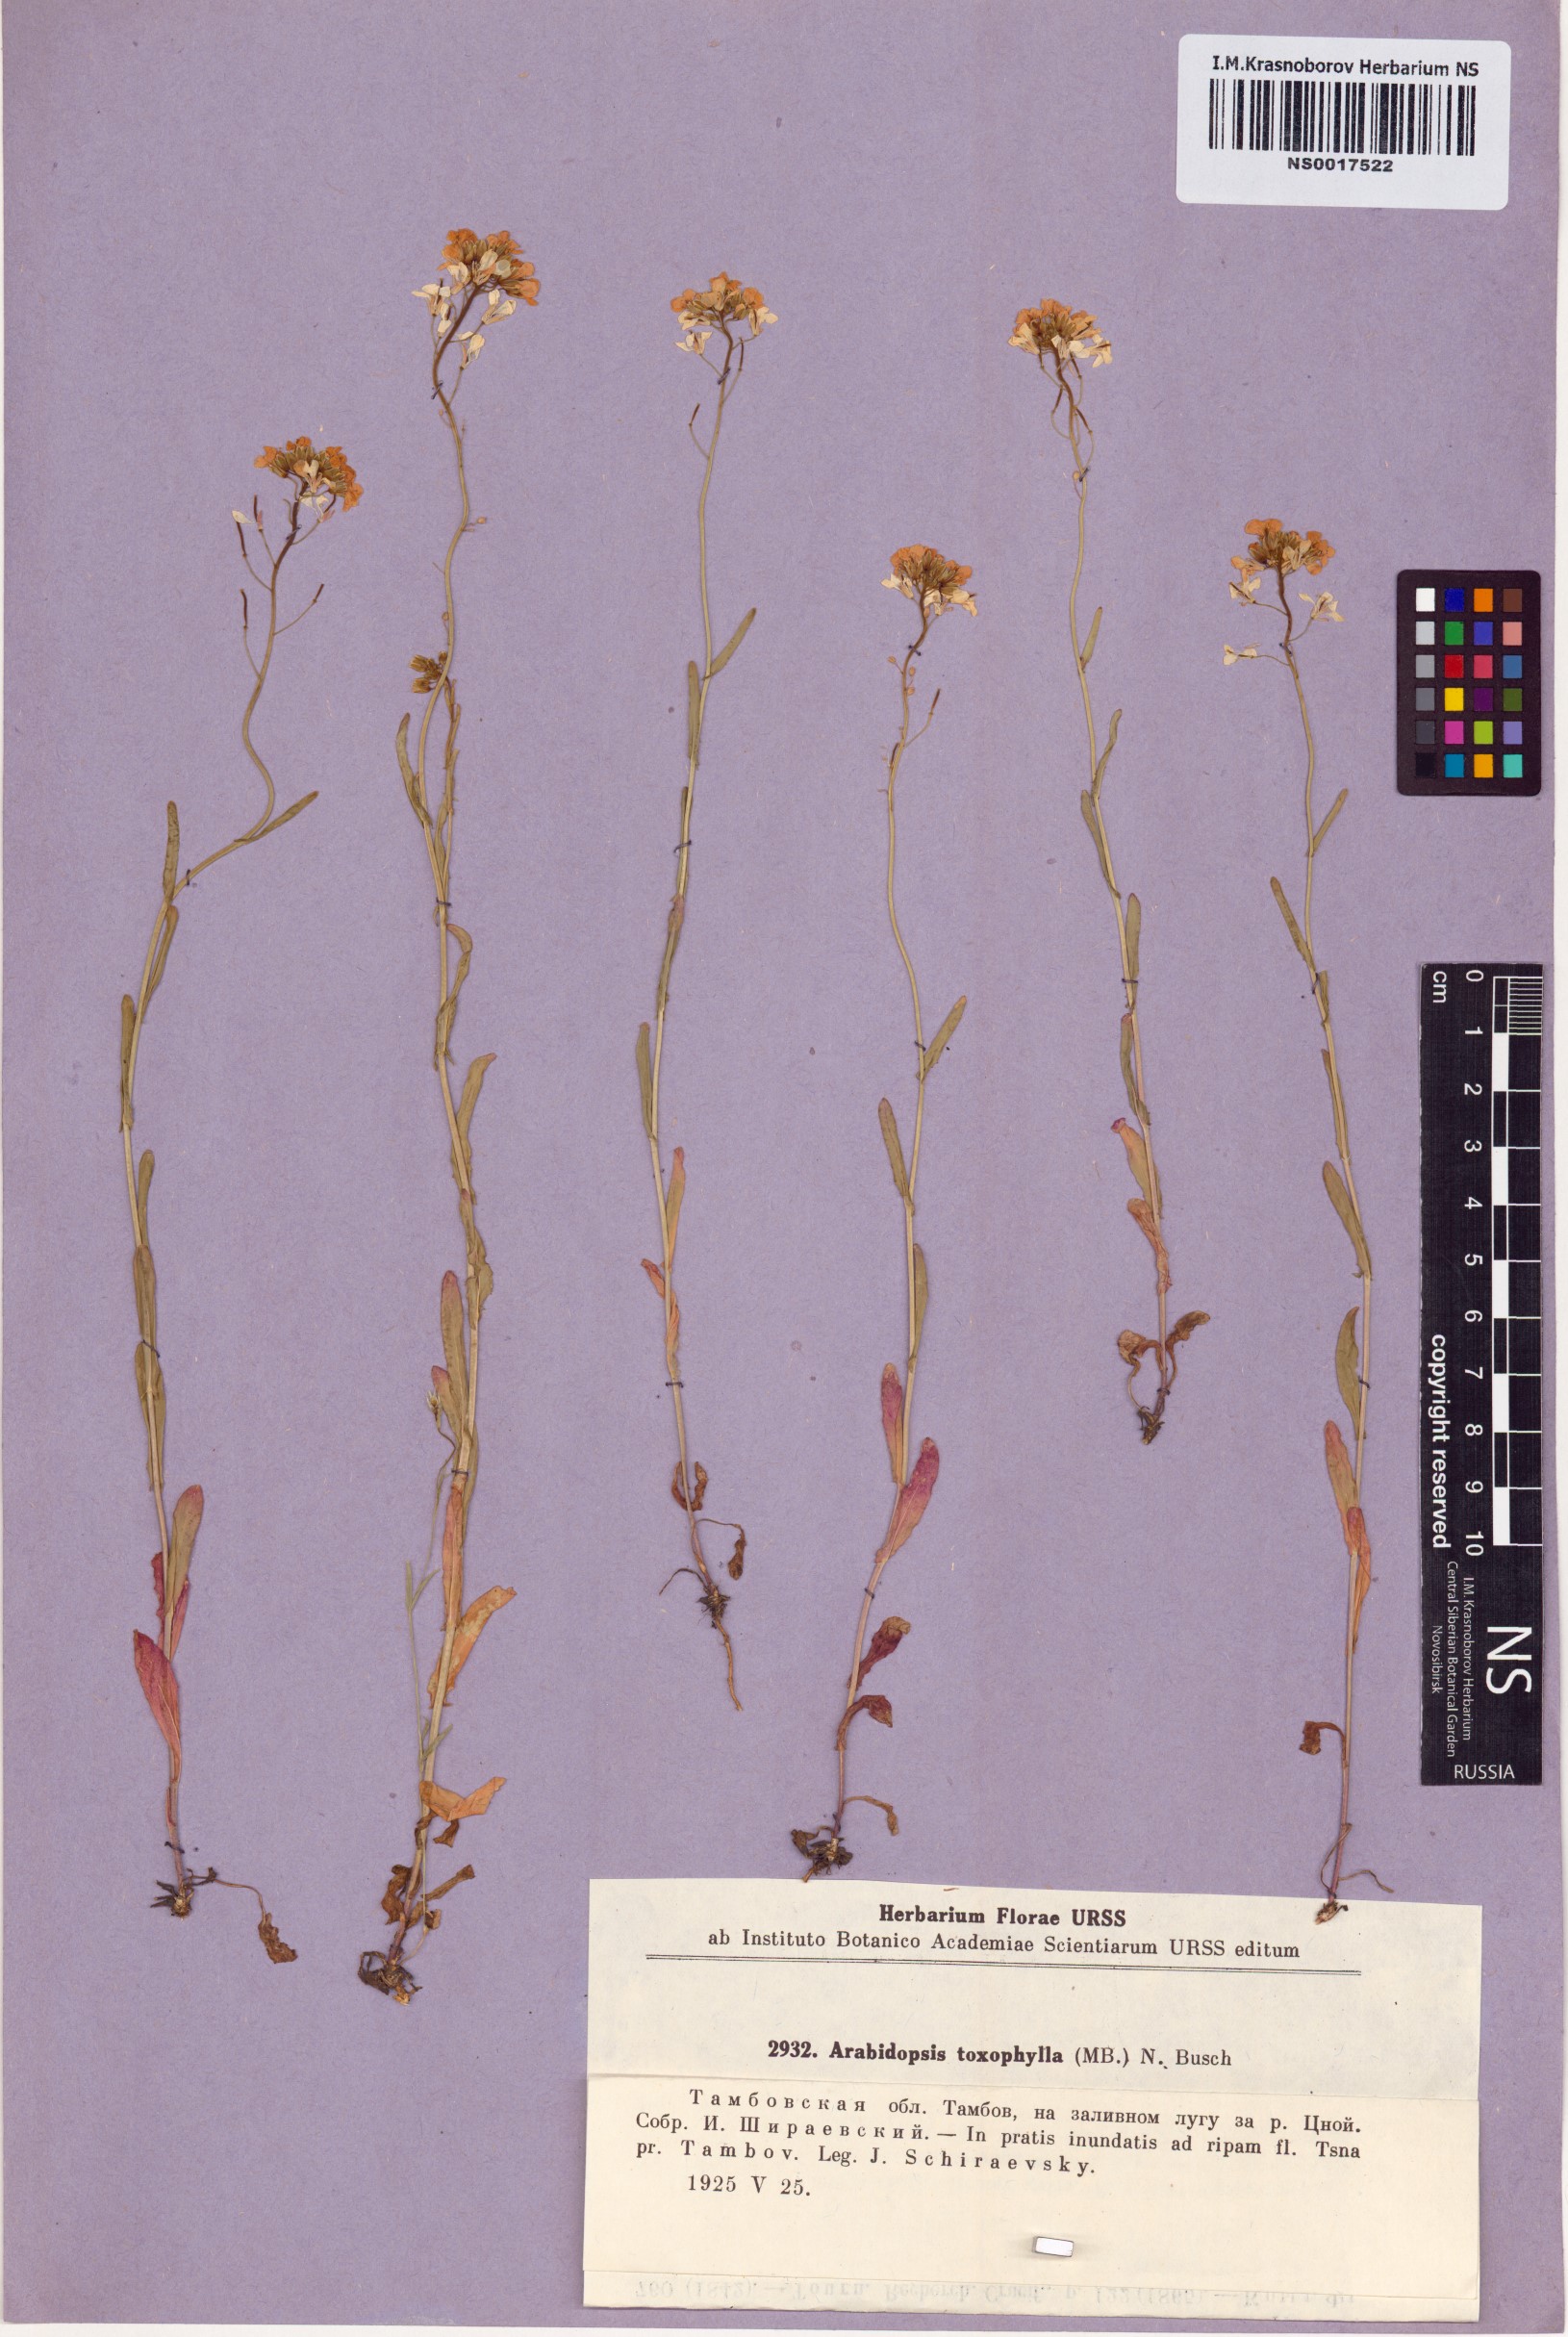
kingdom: Plantae
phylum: Tracheophyta
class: Magnoliopsida
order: Brassicales
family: Brassicaceae
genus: Pseudoarabidopsis
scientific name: Pseudoarabidopsis toxophylla
